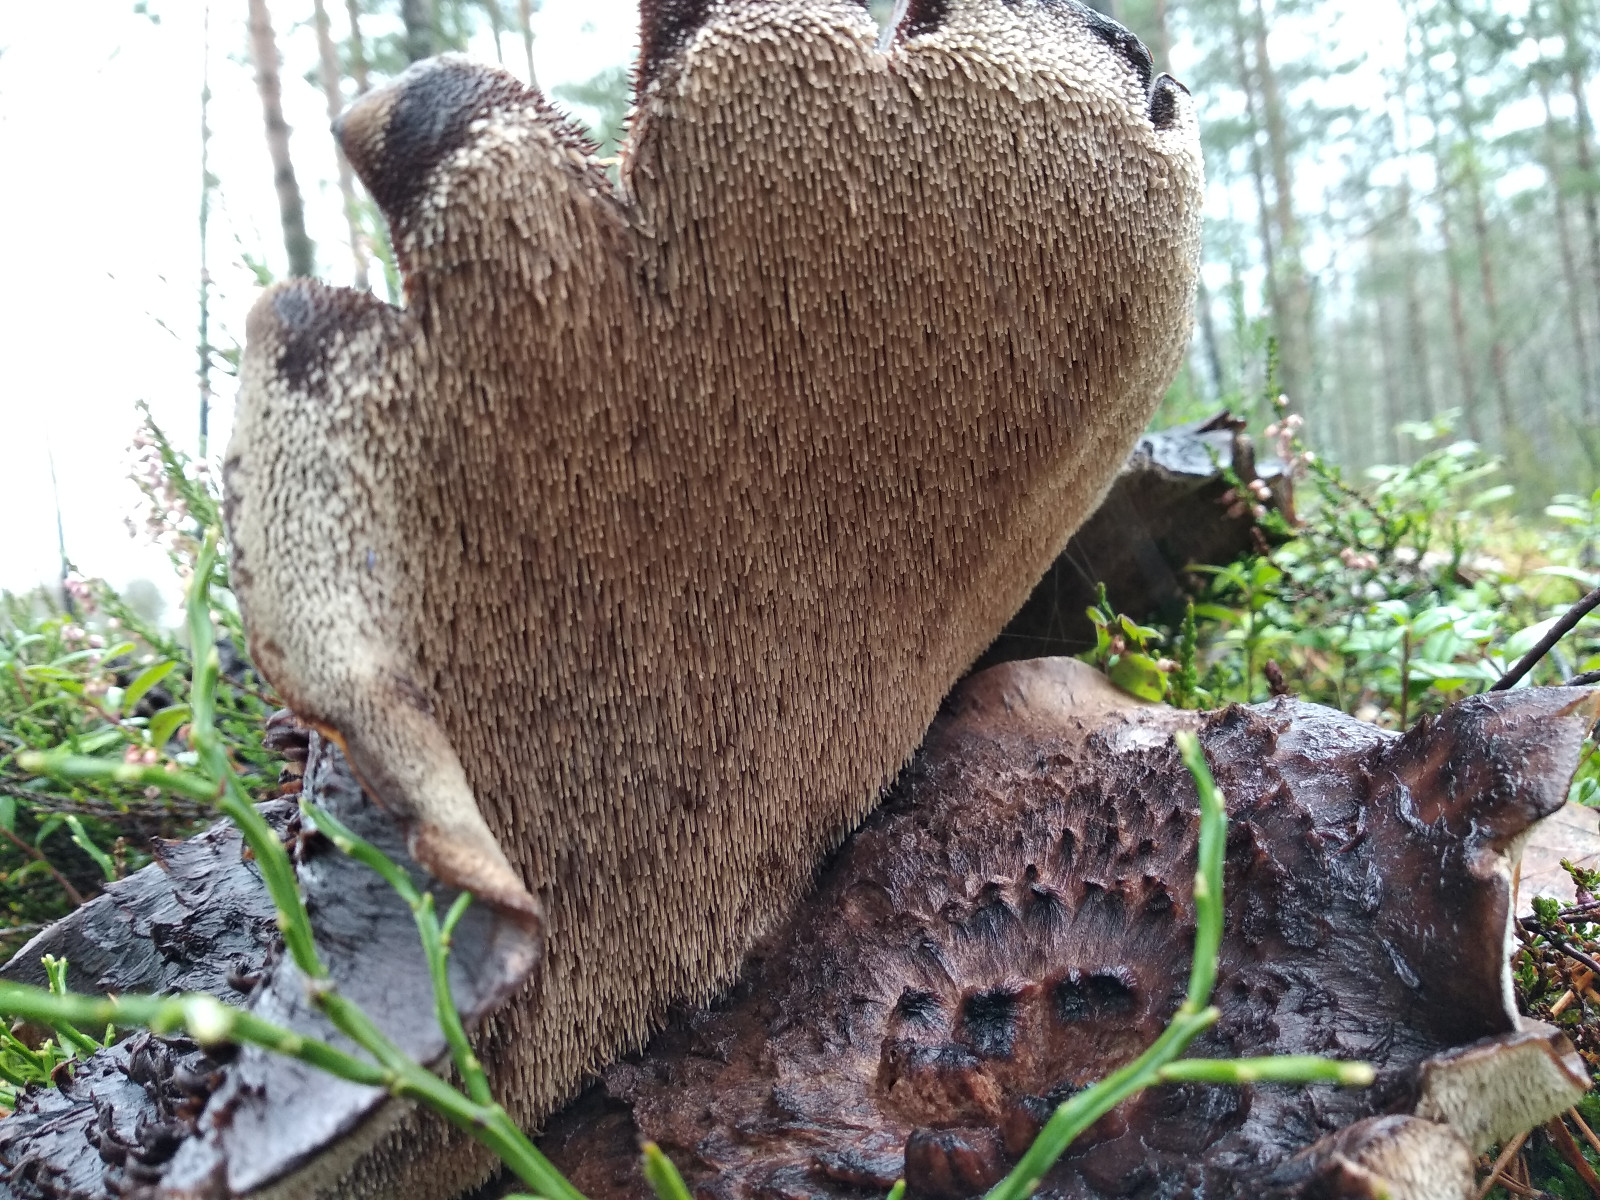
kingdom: Fungi
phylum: Basidiomycota
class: Agaricomycetes
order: Thelephorales
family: Bankeraceae
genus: Sarcodon
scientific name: Sarcodon squamosus
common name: småskællet kødpigsvamp
